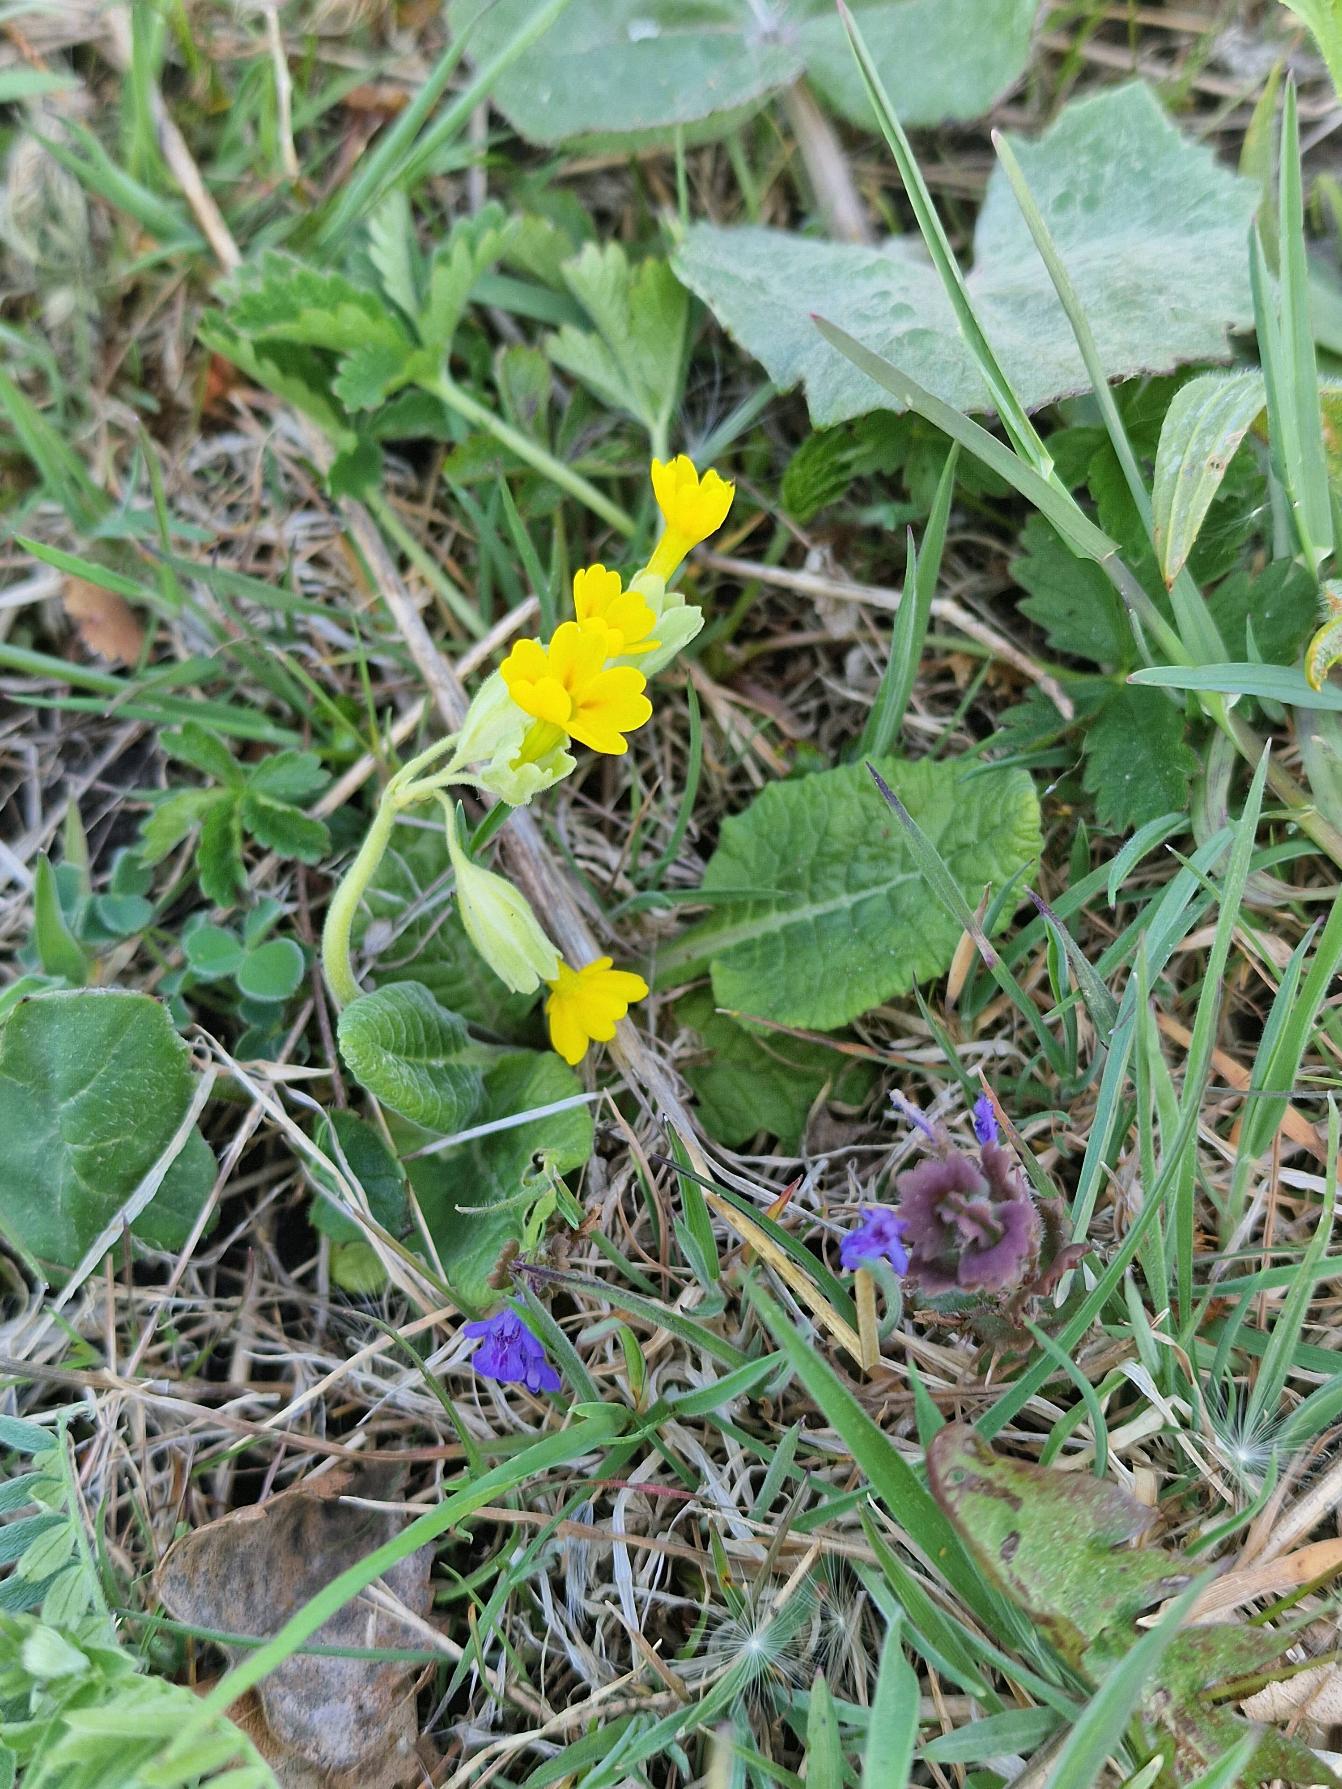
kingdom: Plantae
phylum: Tracheophyta
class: Magnoliopsida
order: Ericales
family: Primulaceae
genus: Primula
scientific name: Primula veris
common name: Hulkravet kodriver
